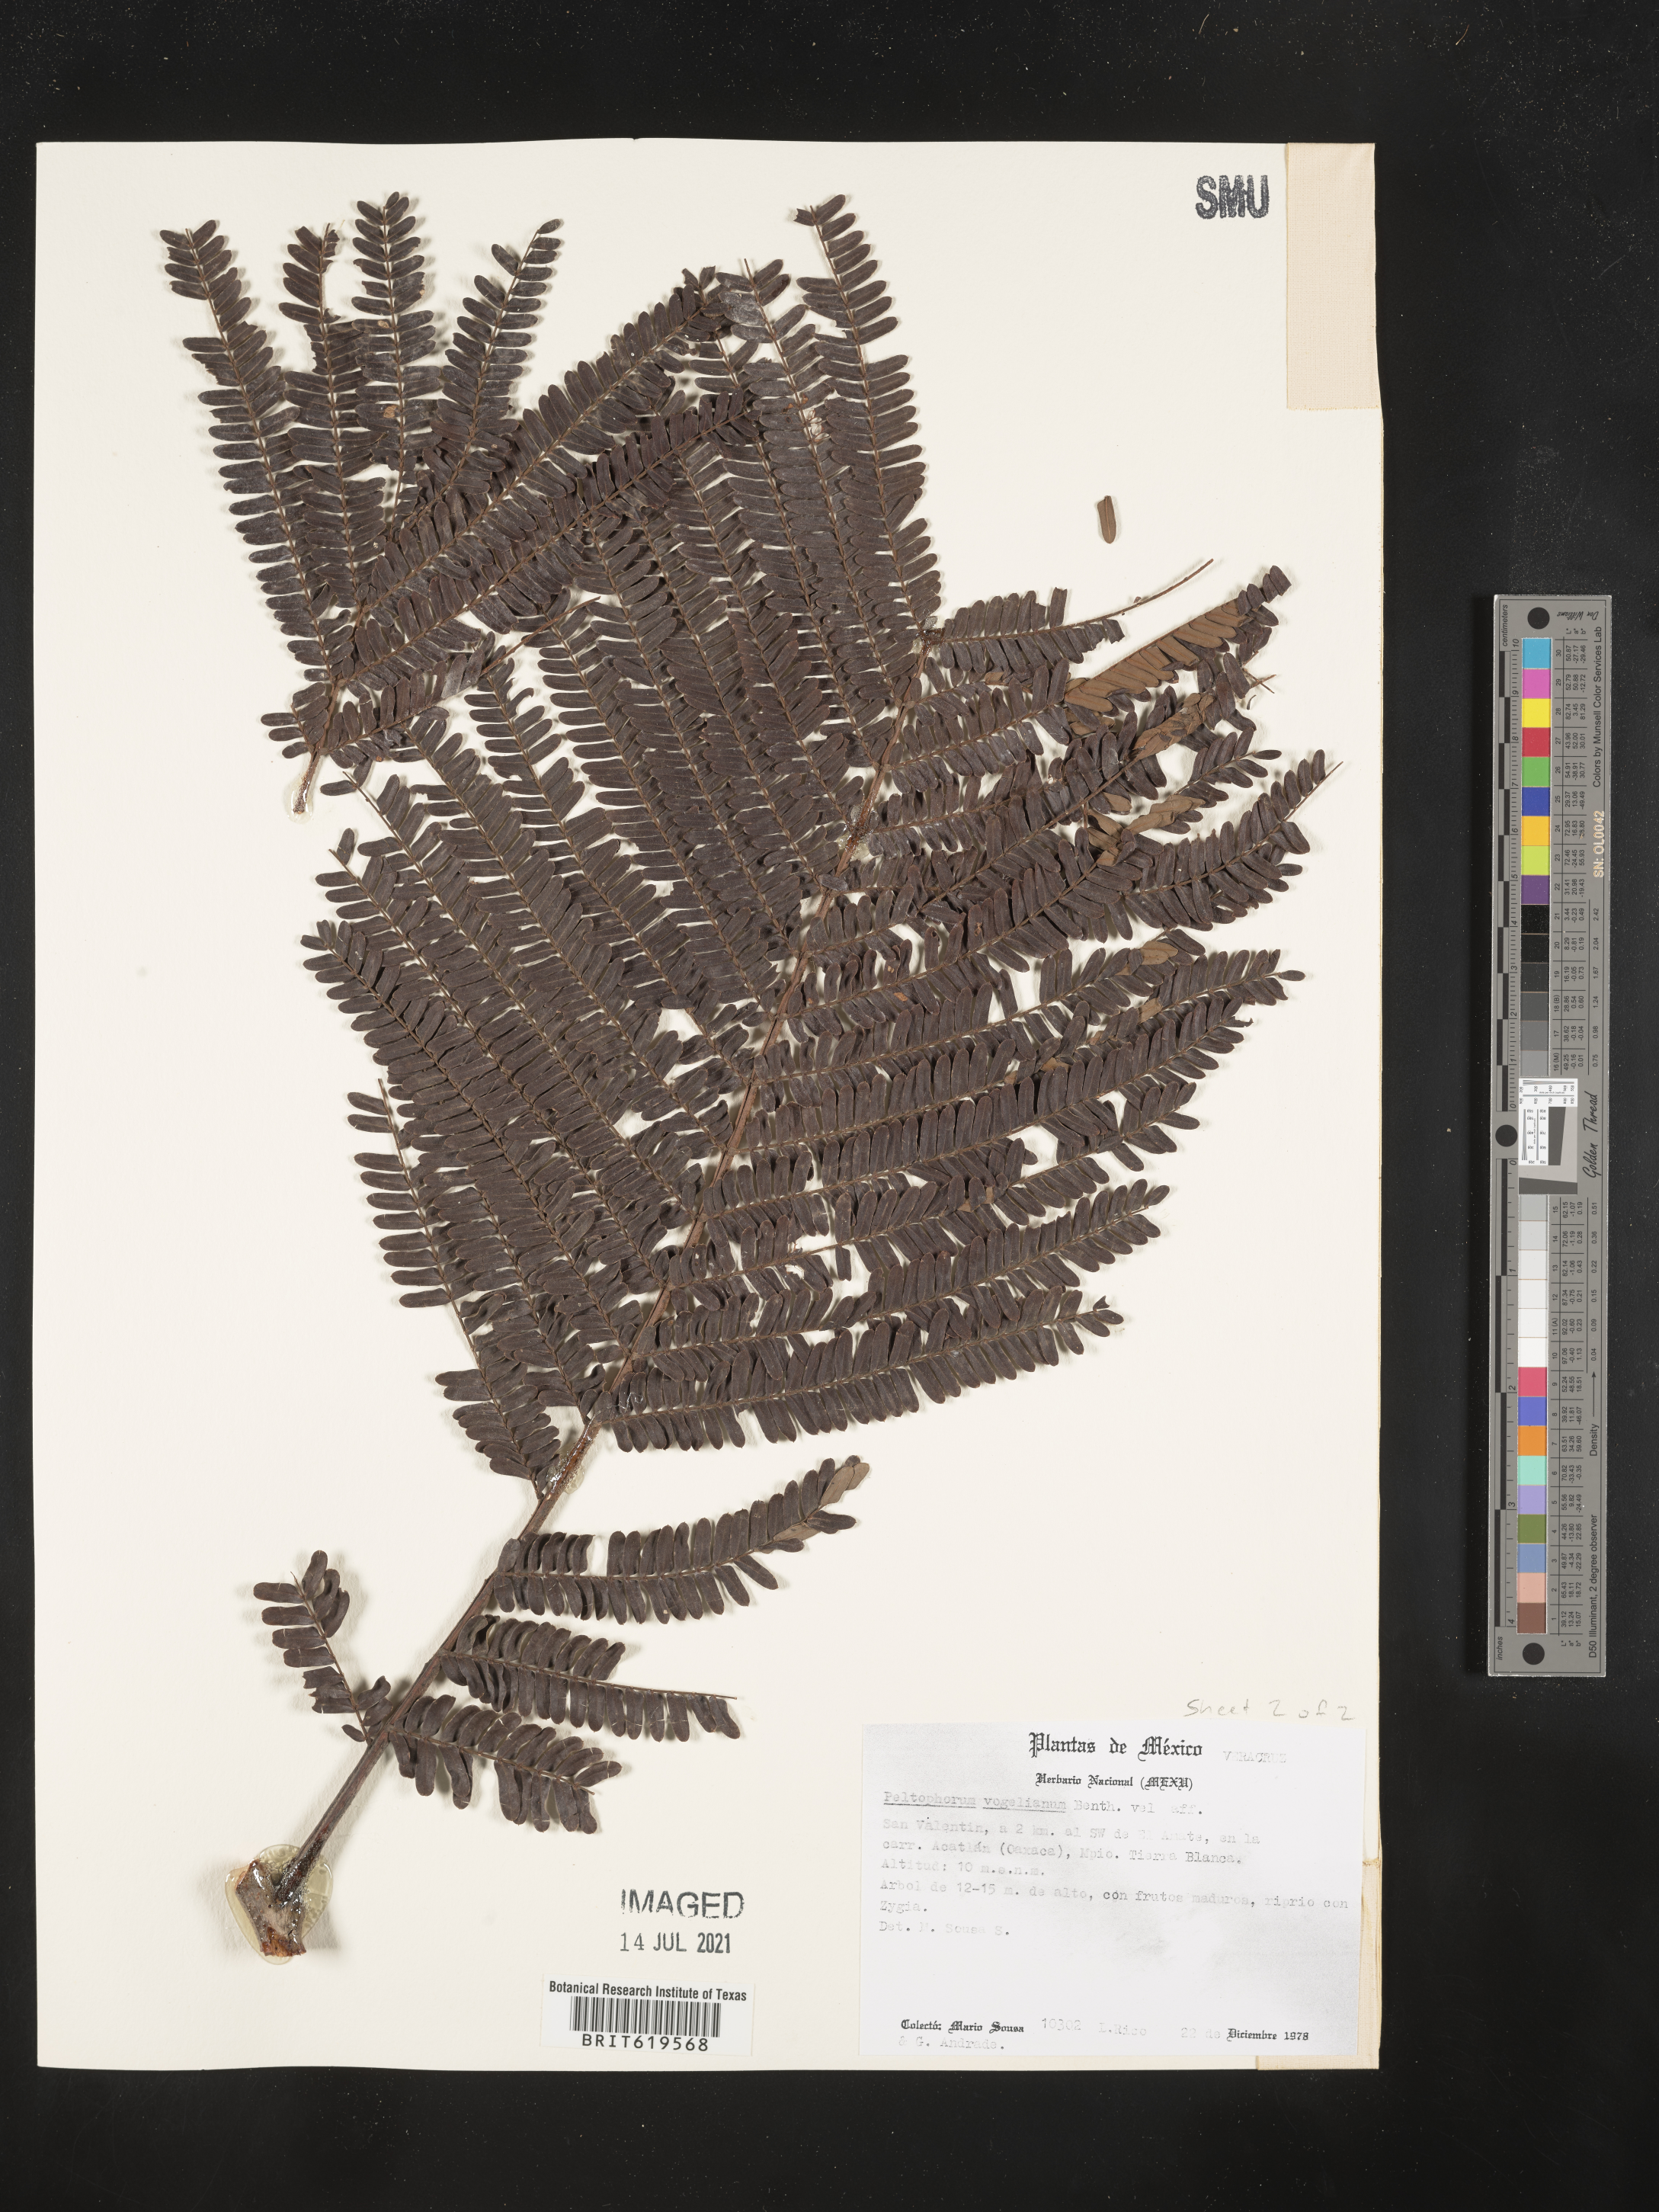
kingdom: Plantae
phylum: Tracheophyta
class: Magnoliopsida
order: Fabales
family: Fabaceae
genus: Peltophorum
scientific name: Peltophorum dubium
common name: Horsebush
